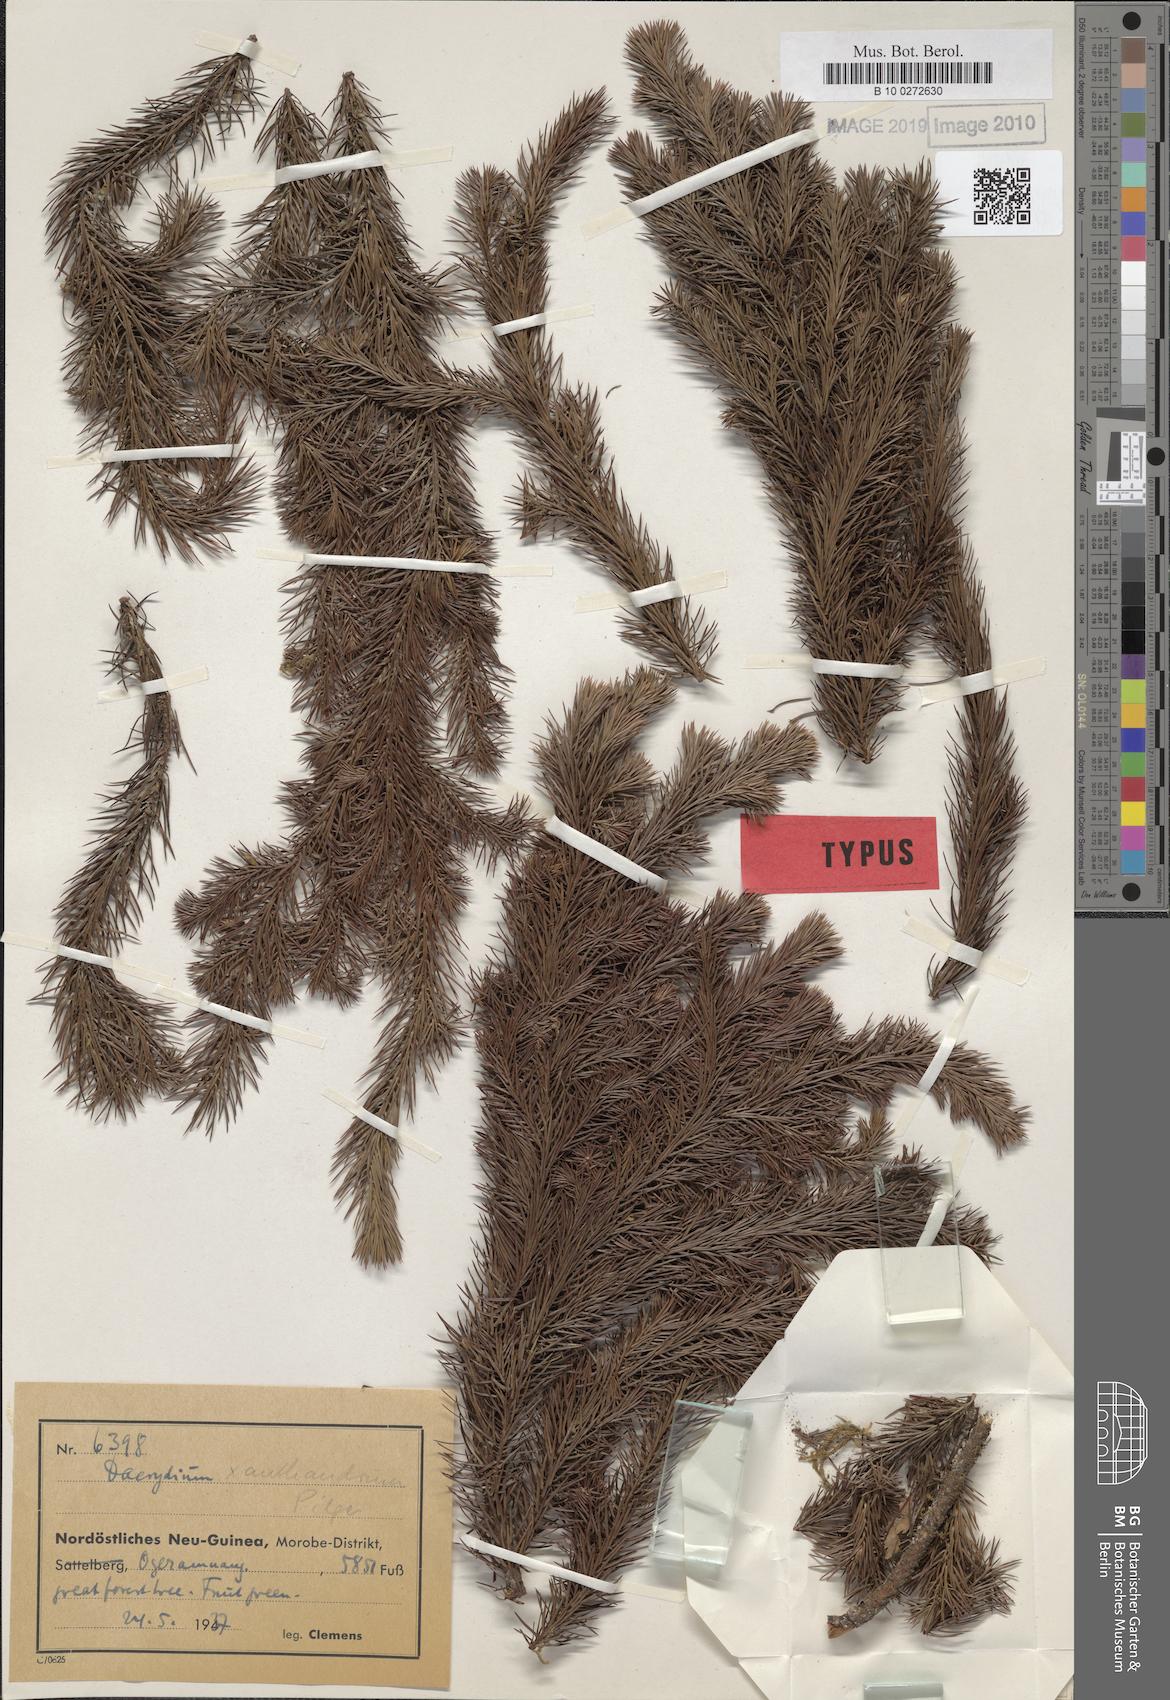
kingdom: Plantae
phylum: Tracheophyta
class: Pinopsida
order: Pinales
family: Podocarpaceae
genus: Dacrydium
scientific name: Dacrydium xanthandrum
